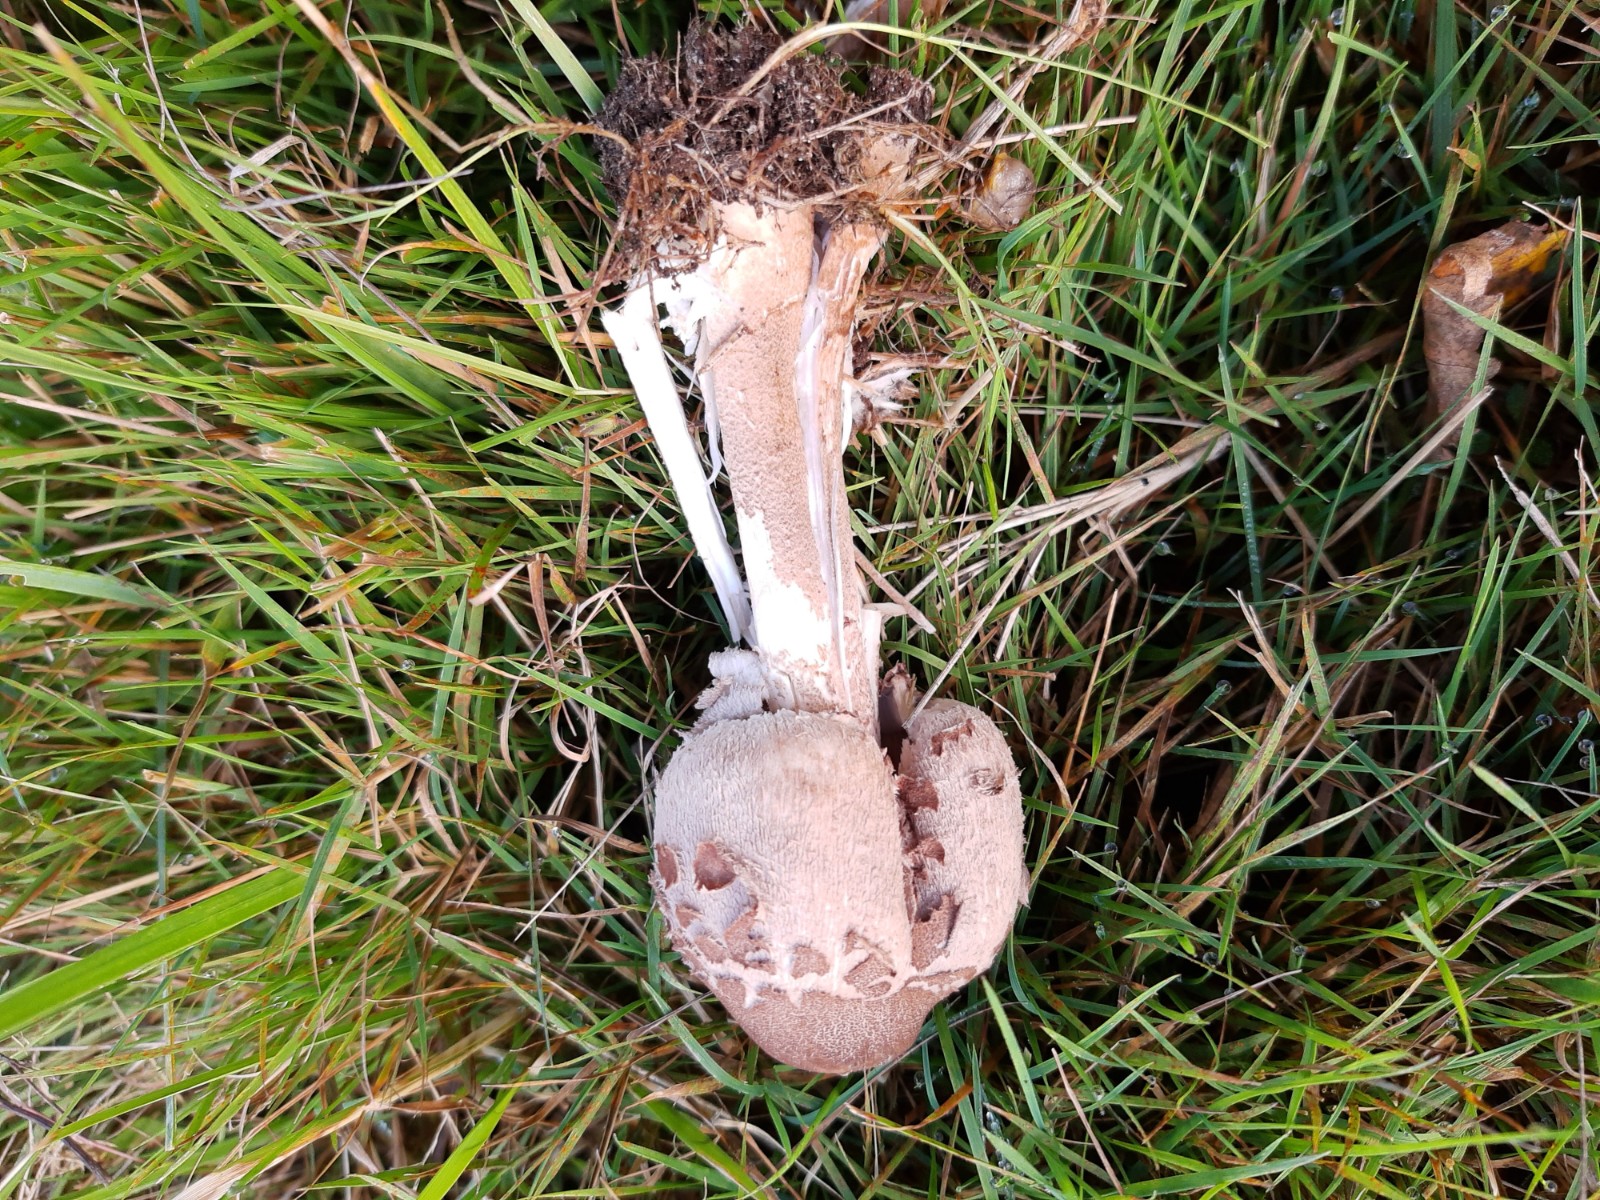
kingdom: Fungi
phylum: Basidiomycota
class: Agaricomycetes
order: Agaricales
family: Agaricaceae
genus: Macrolepiota
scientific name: Macrolepiota procera
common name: stor kæmpeparasolhat
